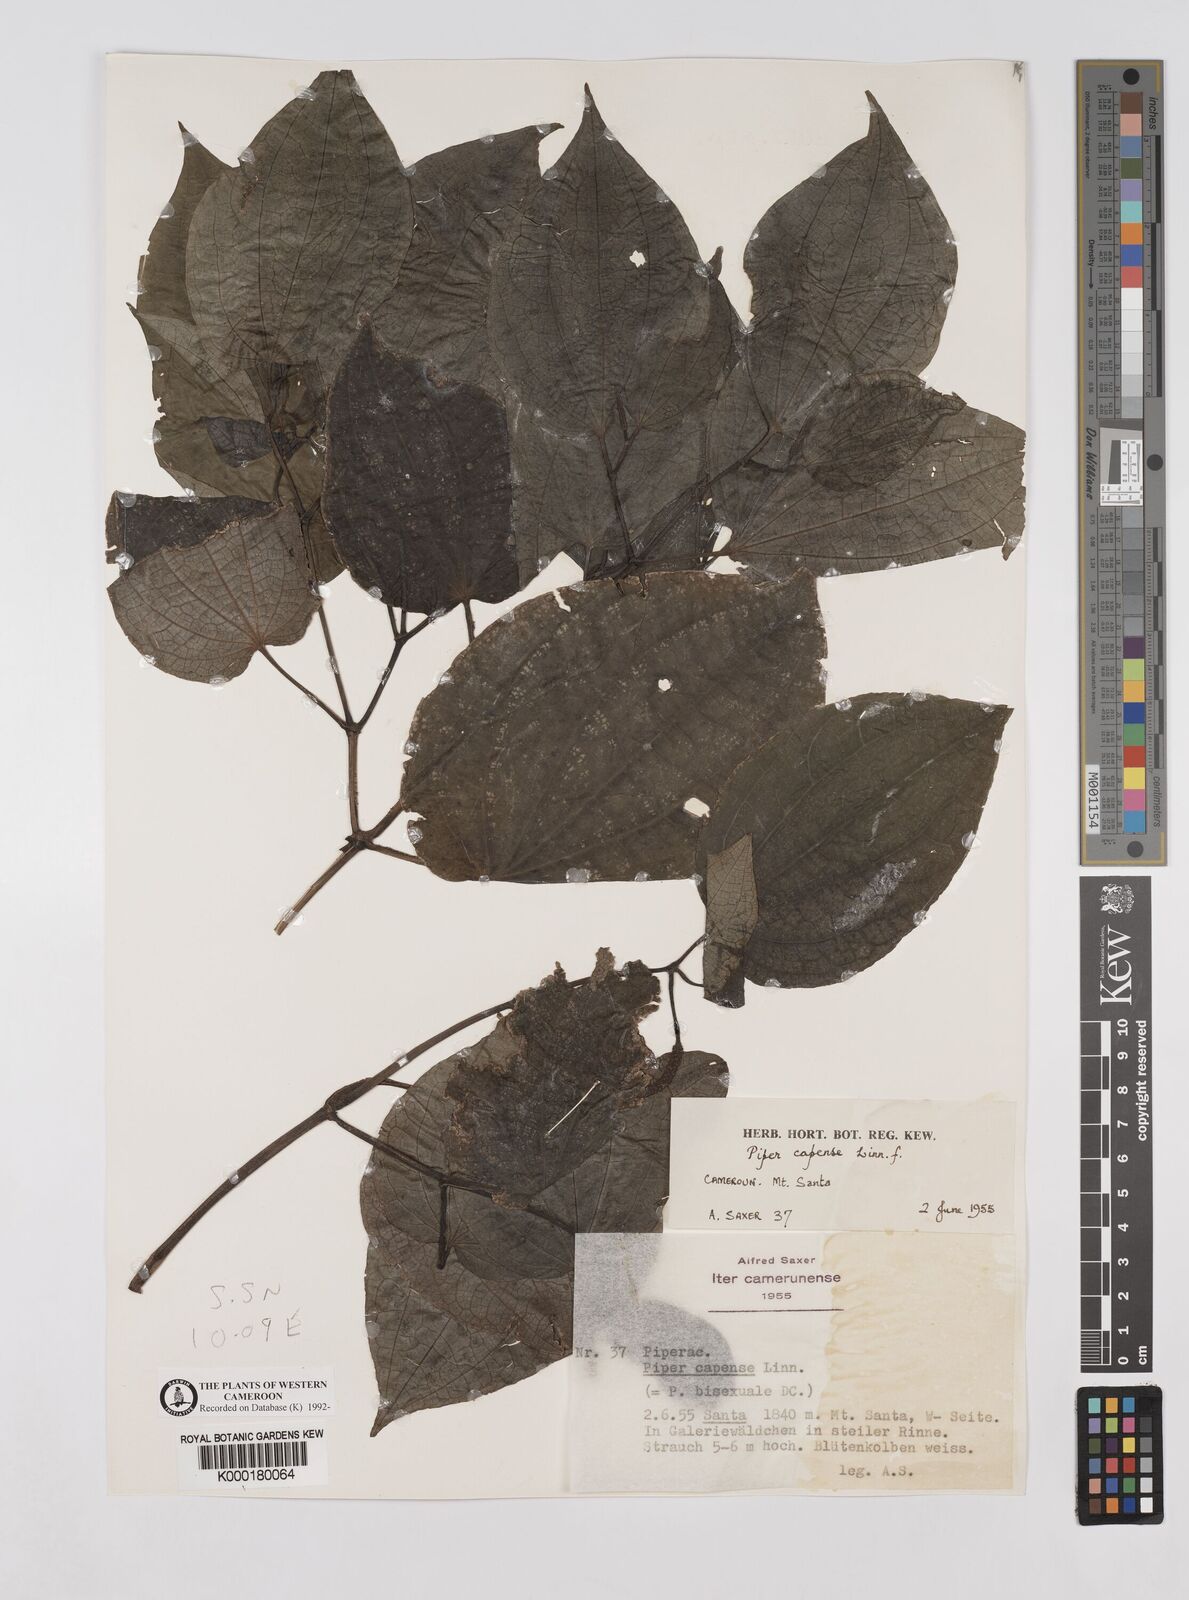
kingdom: Plantae
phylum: Tracheophyta
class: Magnoliopsida
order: Piperales
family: Piperaceae
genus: Piper
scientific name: Piper capense
